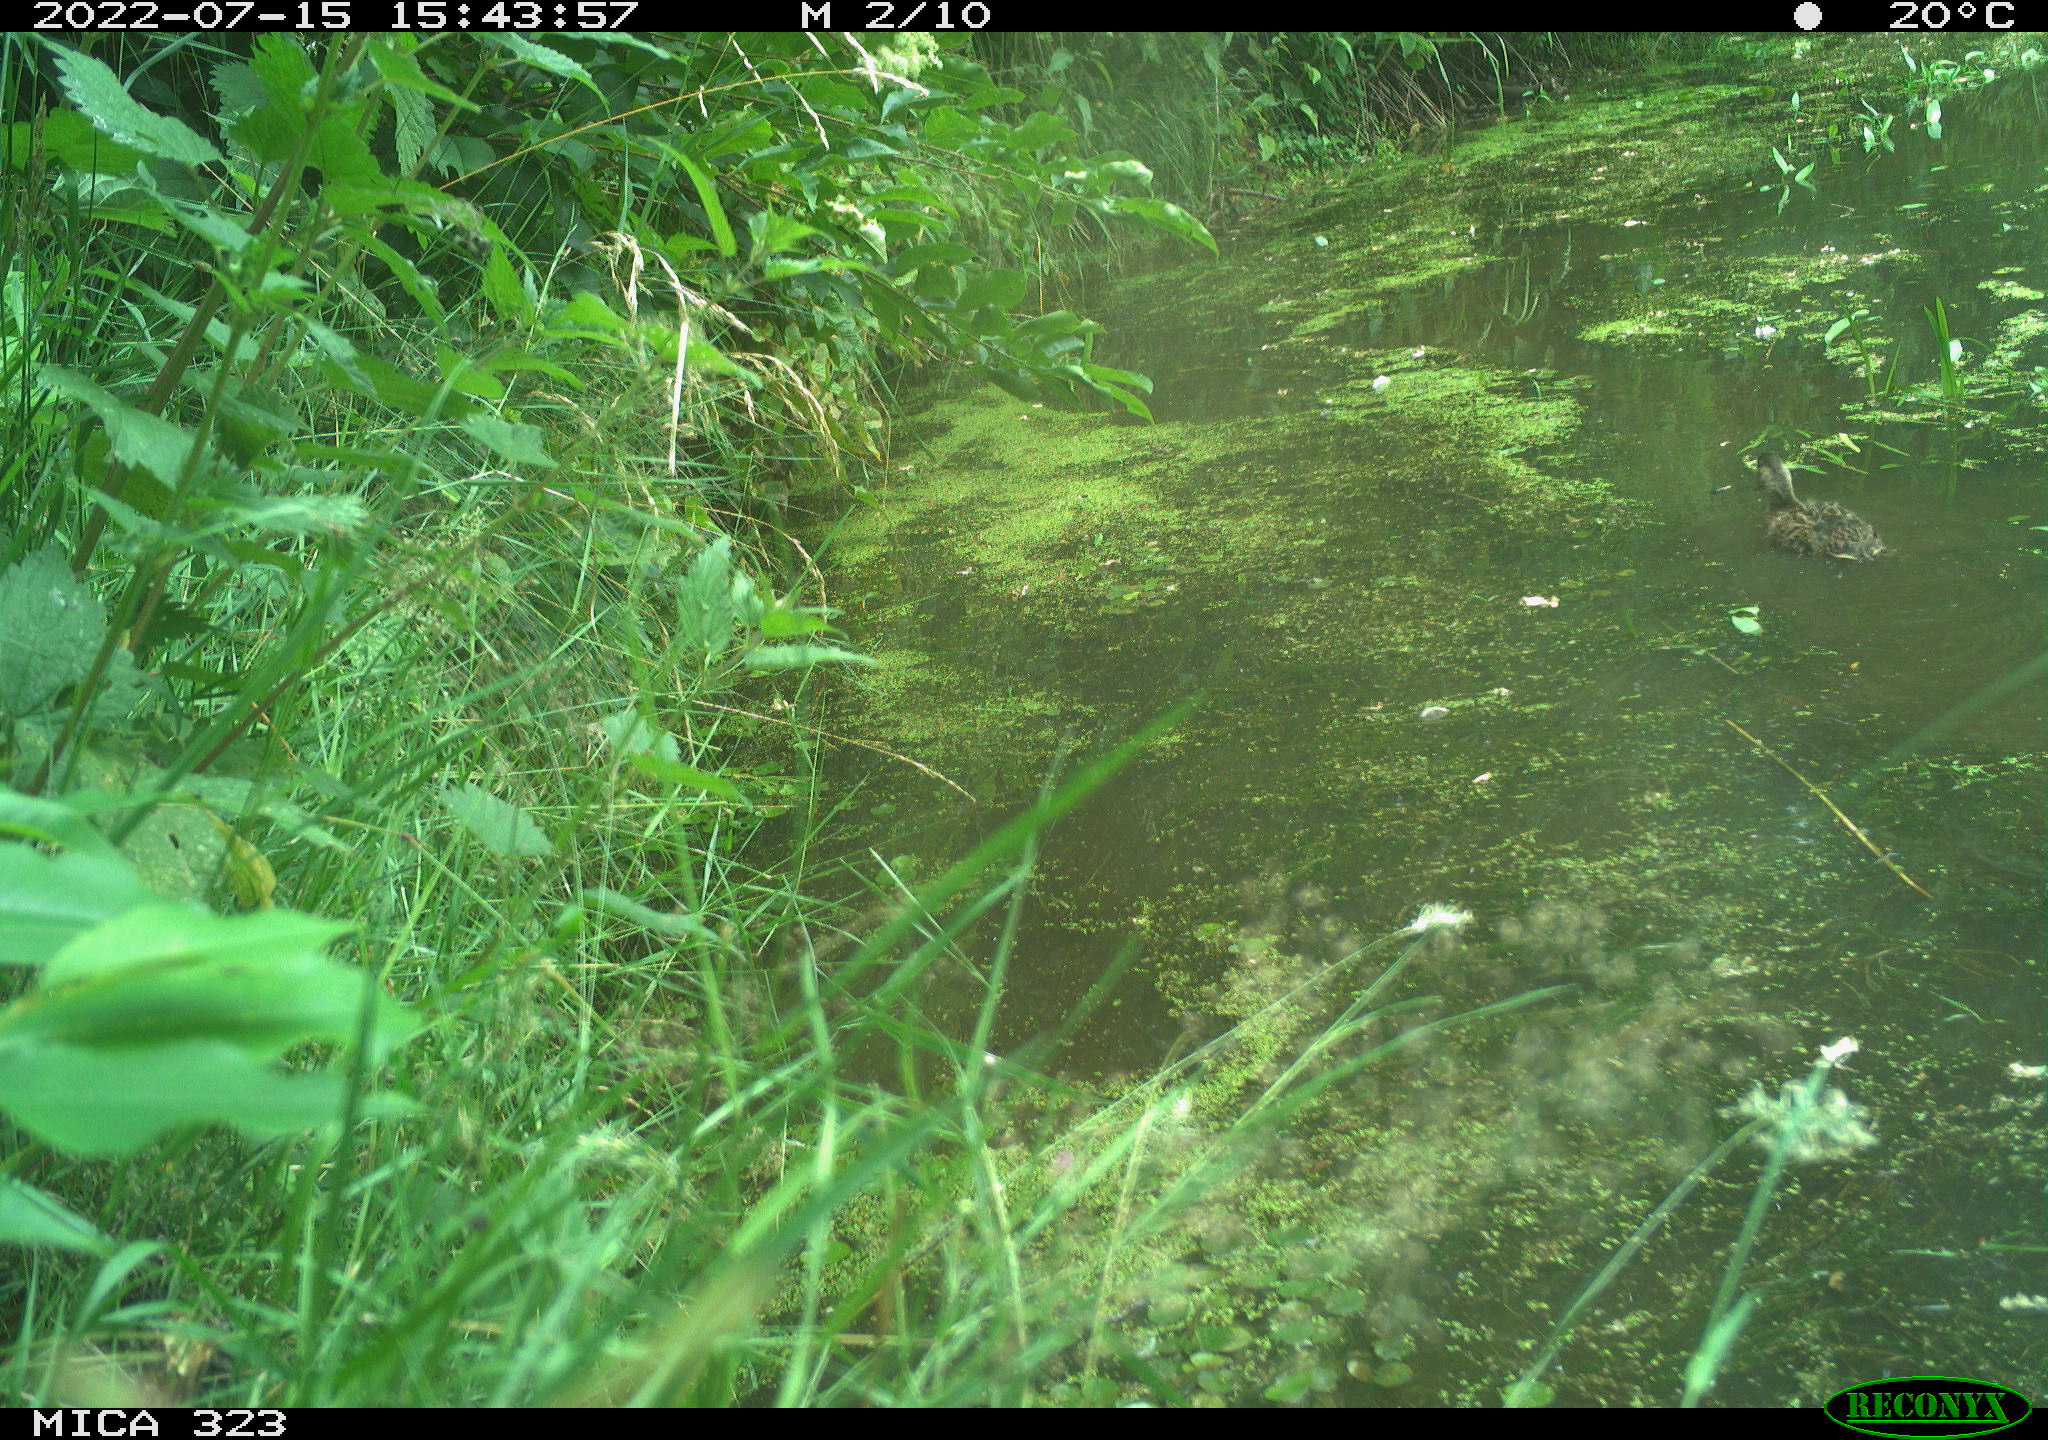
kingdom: Animalia
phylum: Chordata
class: Aves
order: Anseriformes
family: Anatidae
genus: Anas
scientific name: Anas platyrhynchos
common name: Mallard
